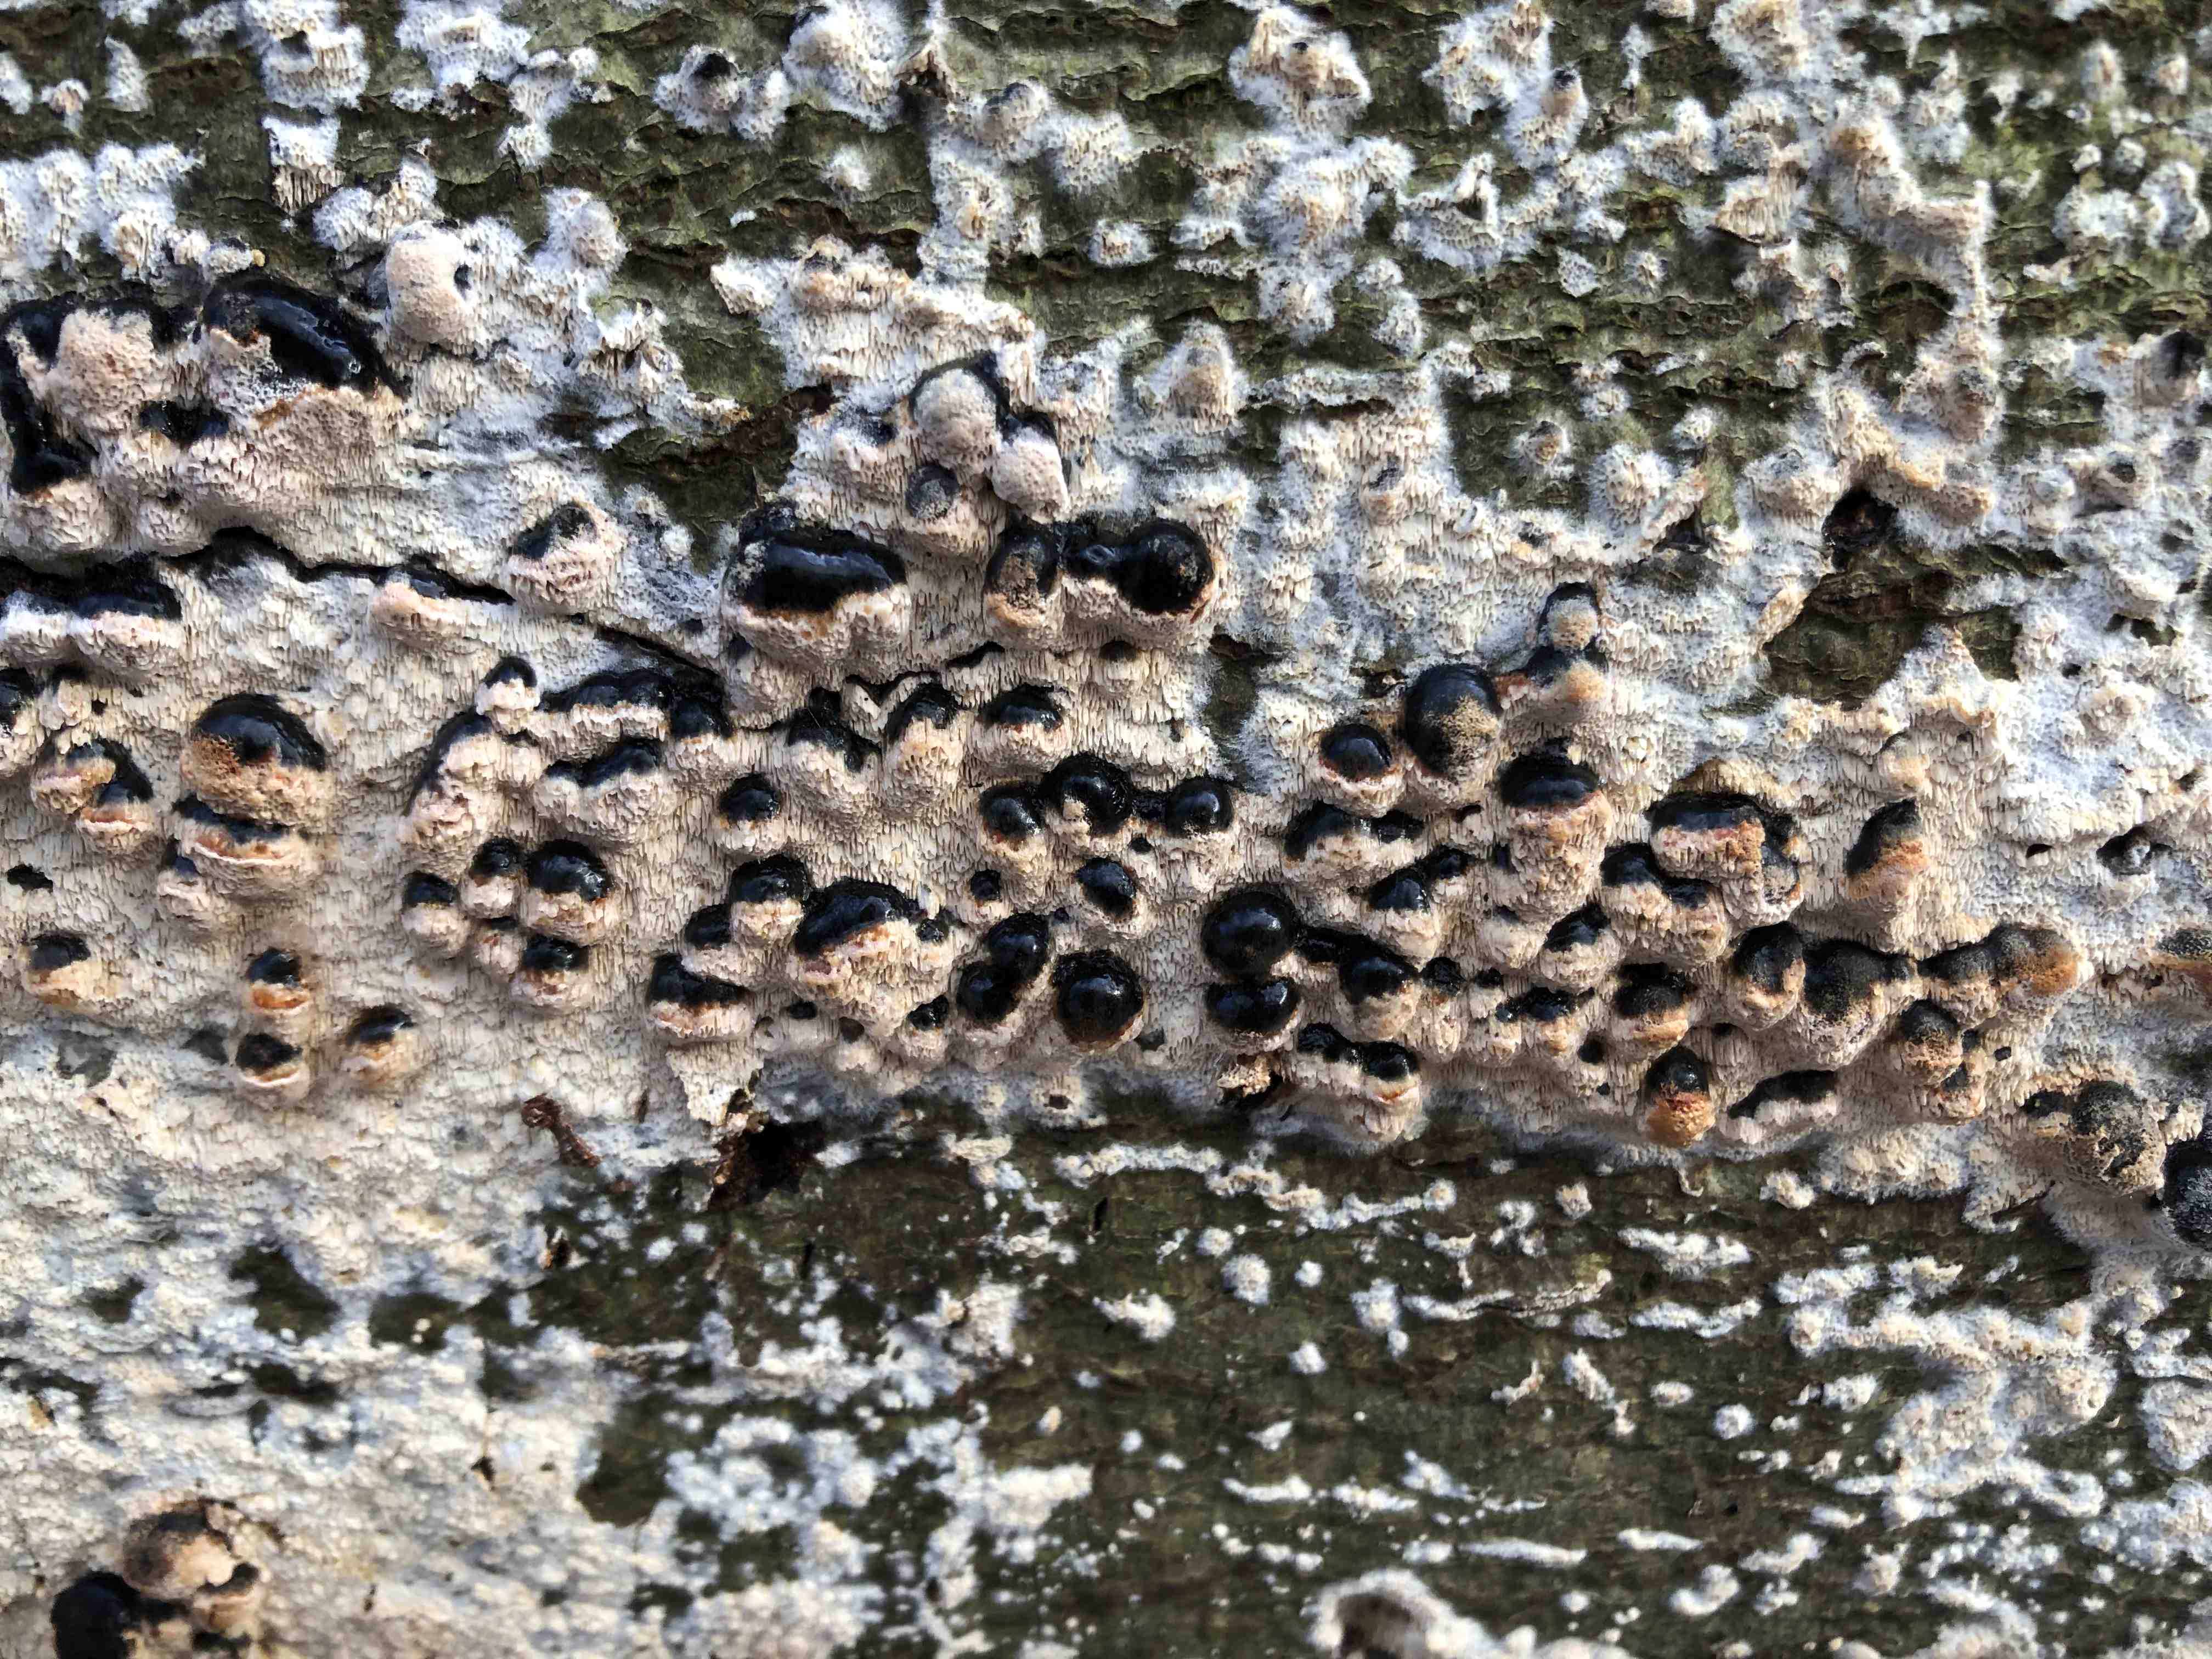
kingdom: Fungi
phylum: Basidiomycota
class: Agaricomycetes
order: Hymenochaetales
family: Schizoporaceae
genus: Schizopora
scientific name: Schizopora paradoxa
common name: hvid tandsvamp
